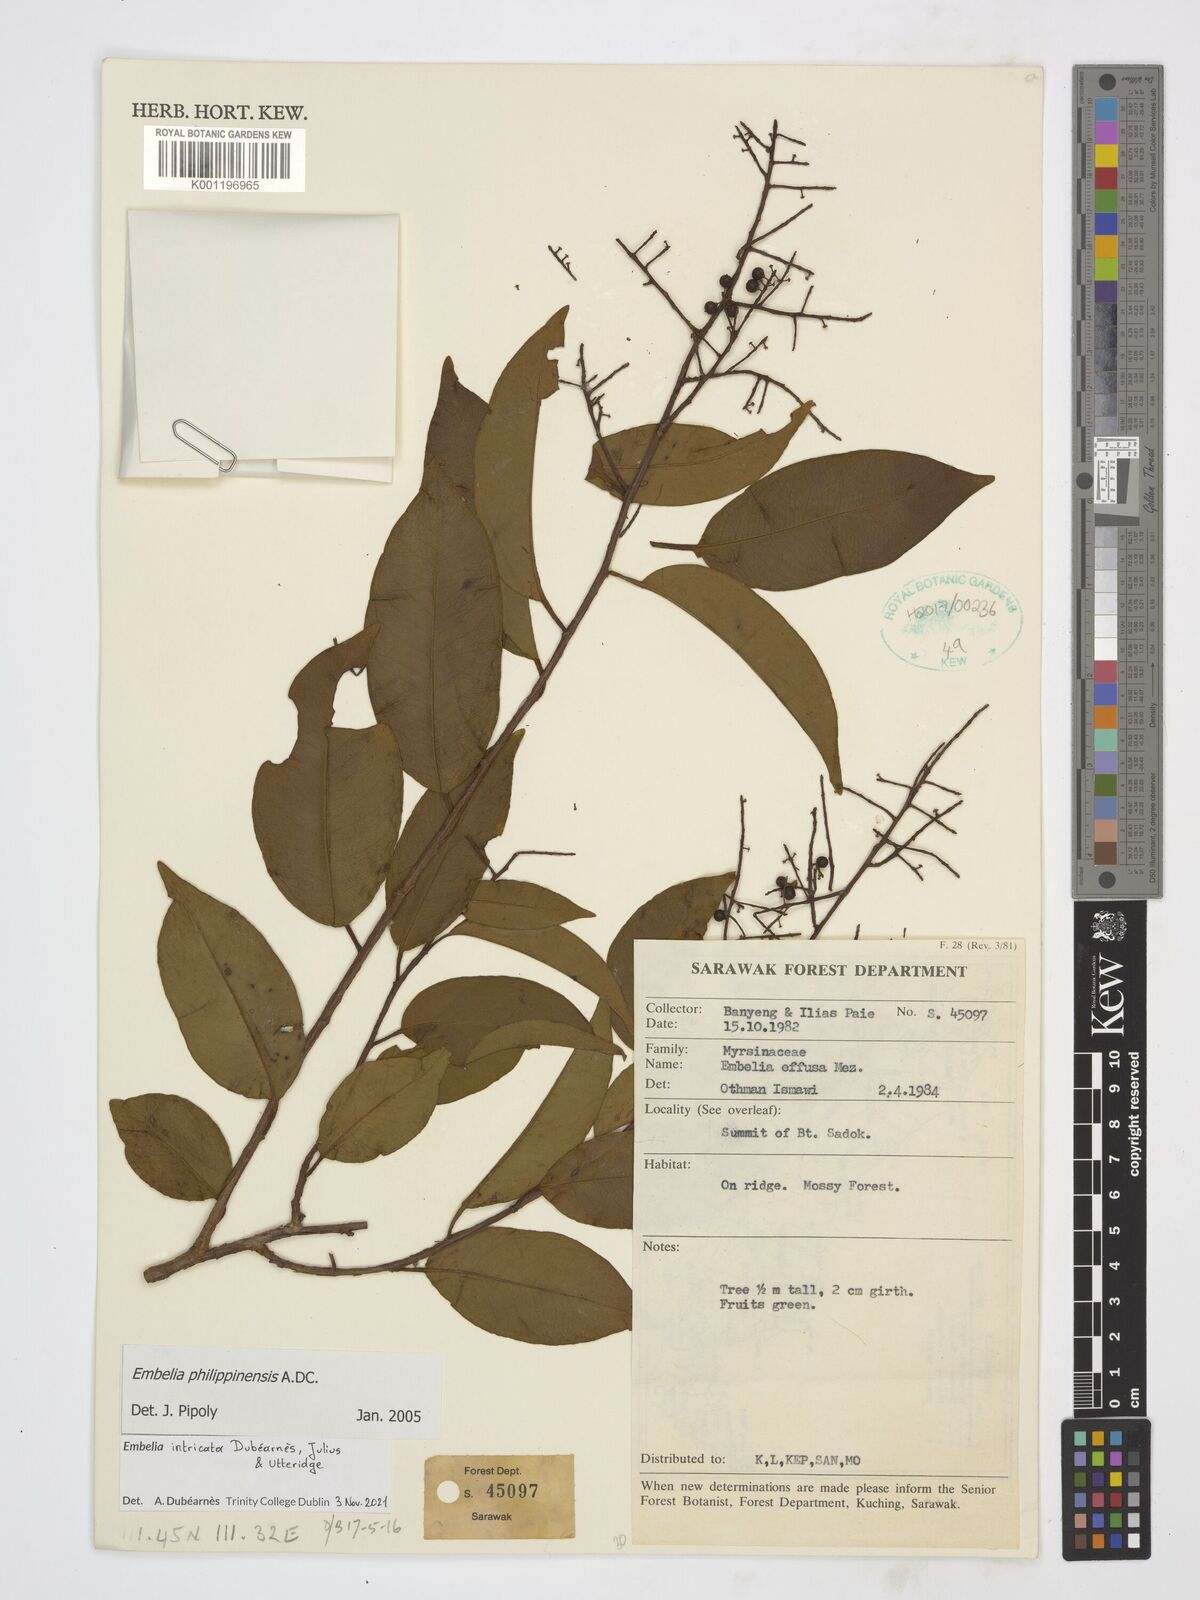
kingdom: Plantae
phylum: Tracheophyta
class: Magnoliopsida
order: Ericales
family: Primulaceae
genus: Embelia
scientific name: Embelia intricata
